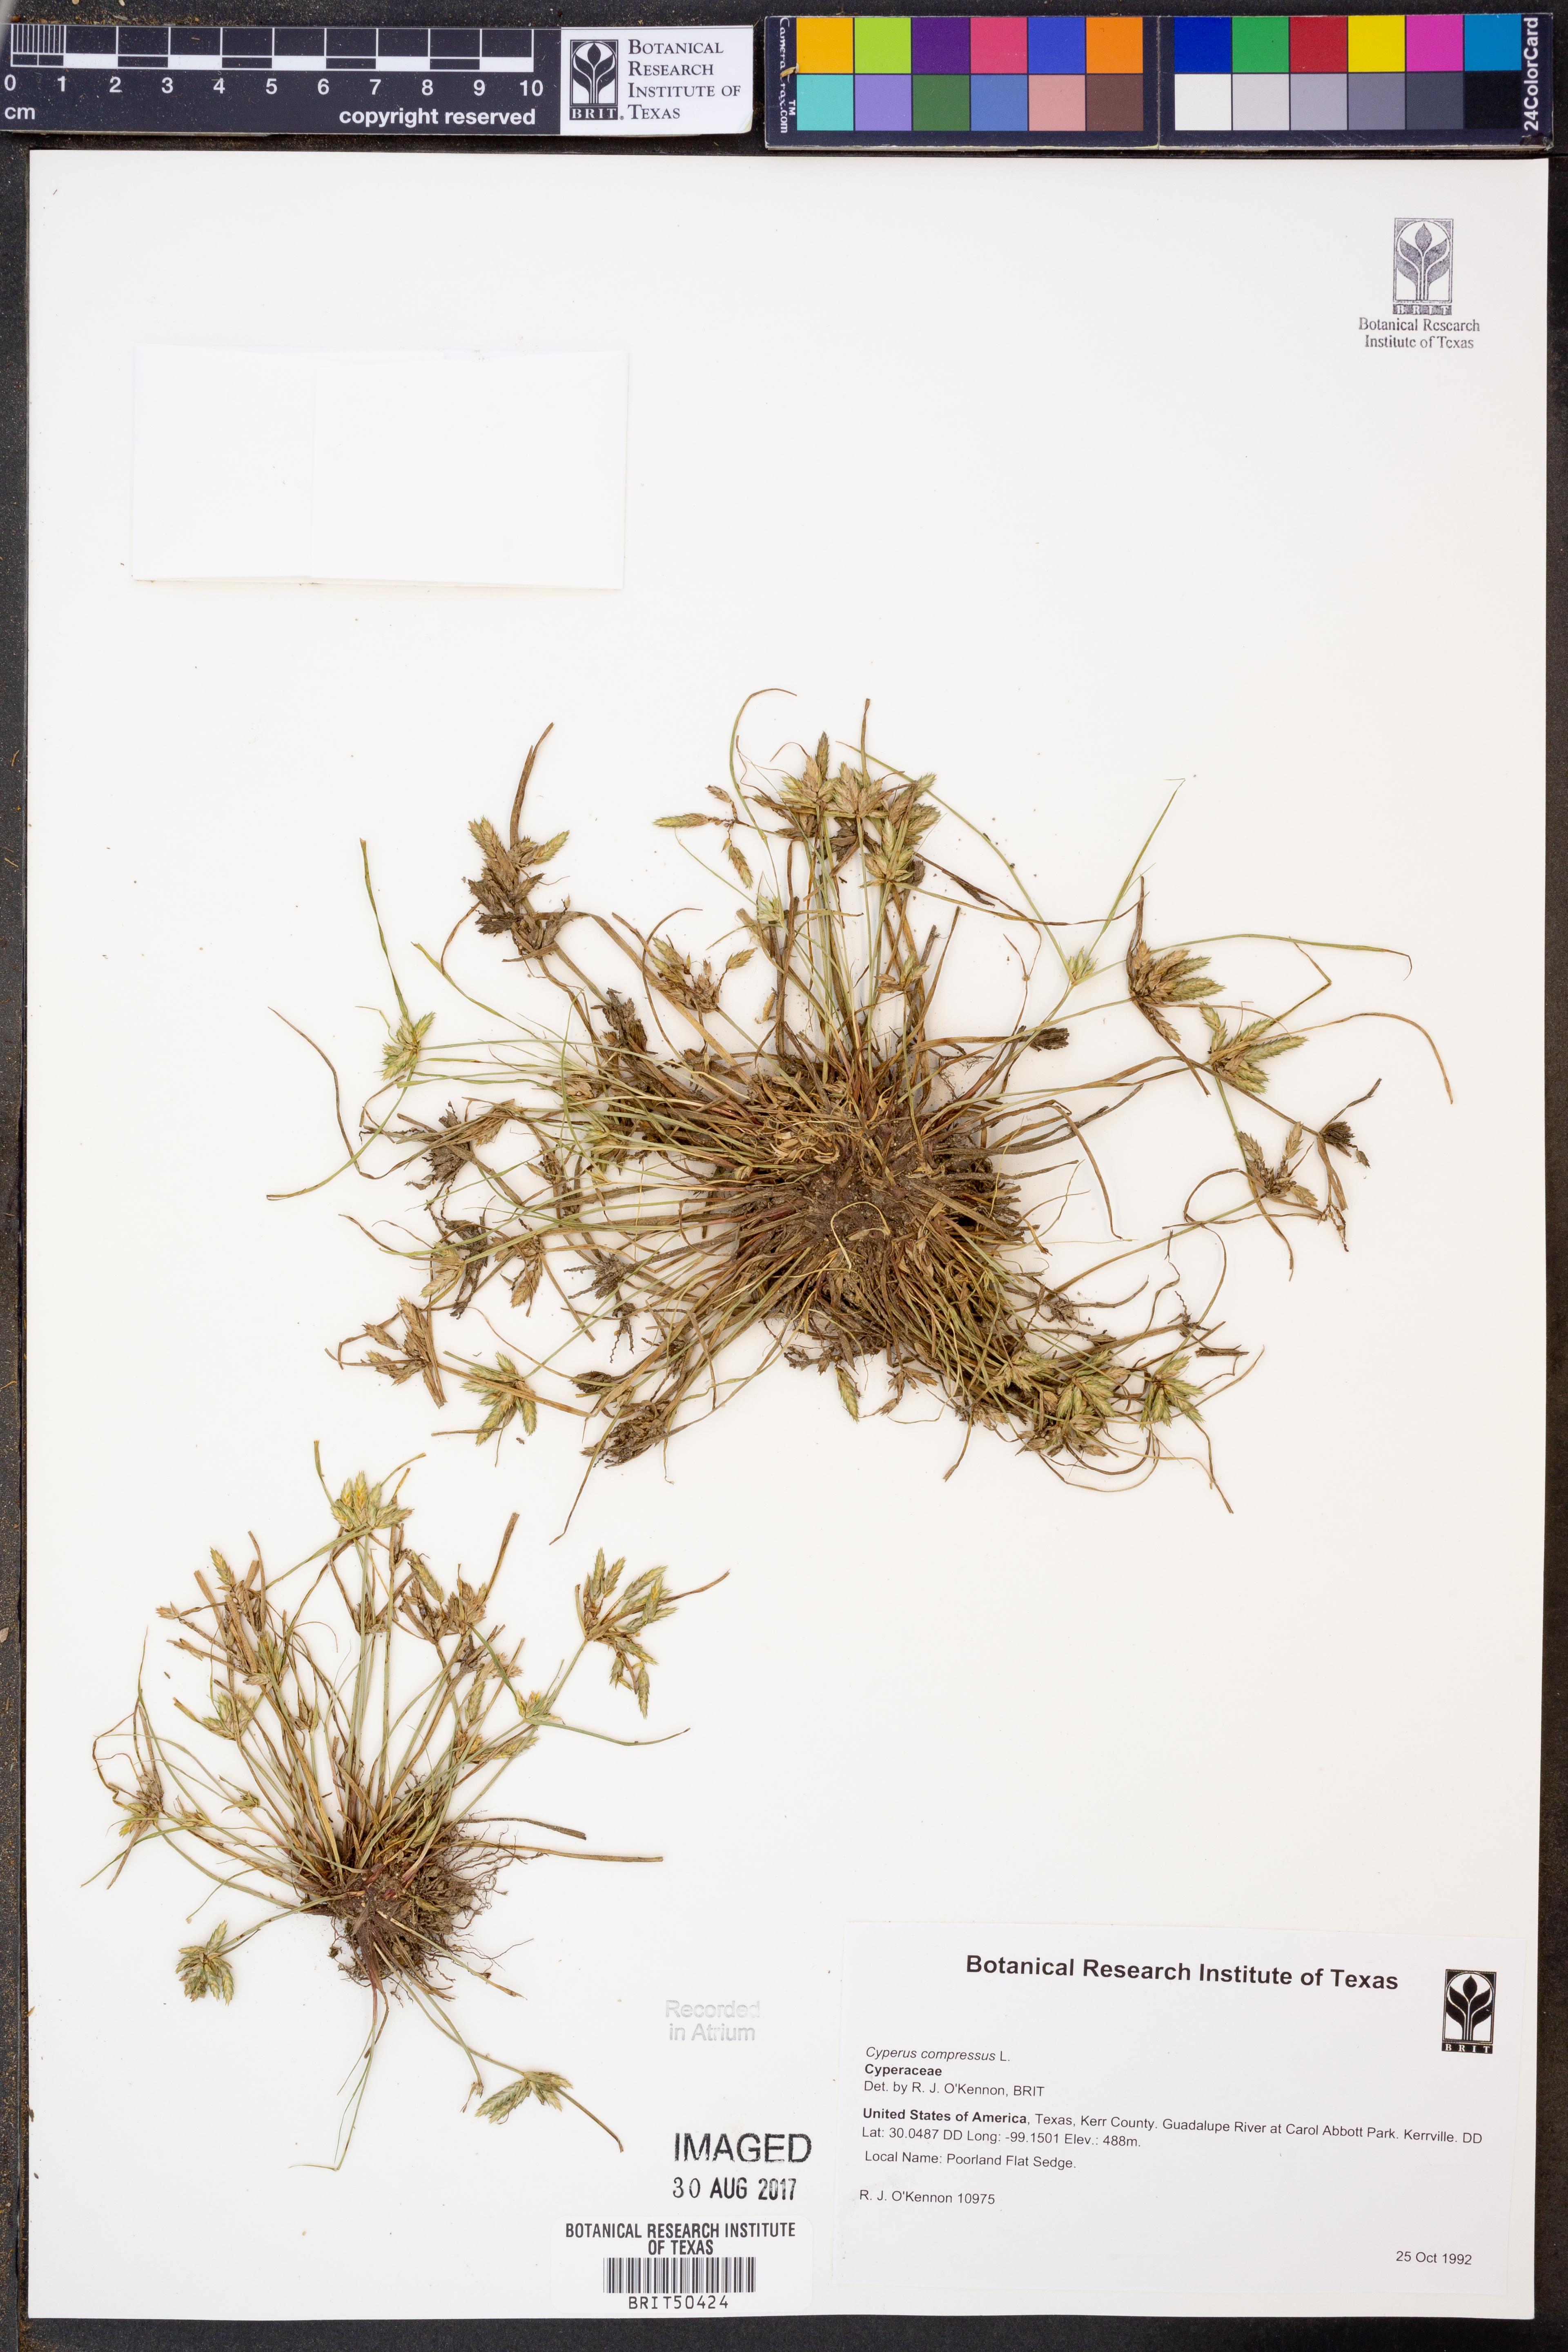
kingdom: Plantae
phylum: Tracheophyta
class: Liliopsida
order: Poales
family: Cyperaceae
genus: Cyperus
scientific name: Cyperus compressus
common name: Poorland flatsedge
